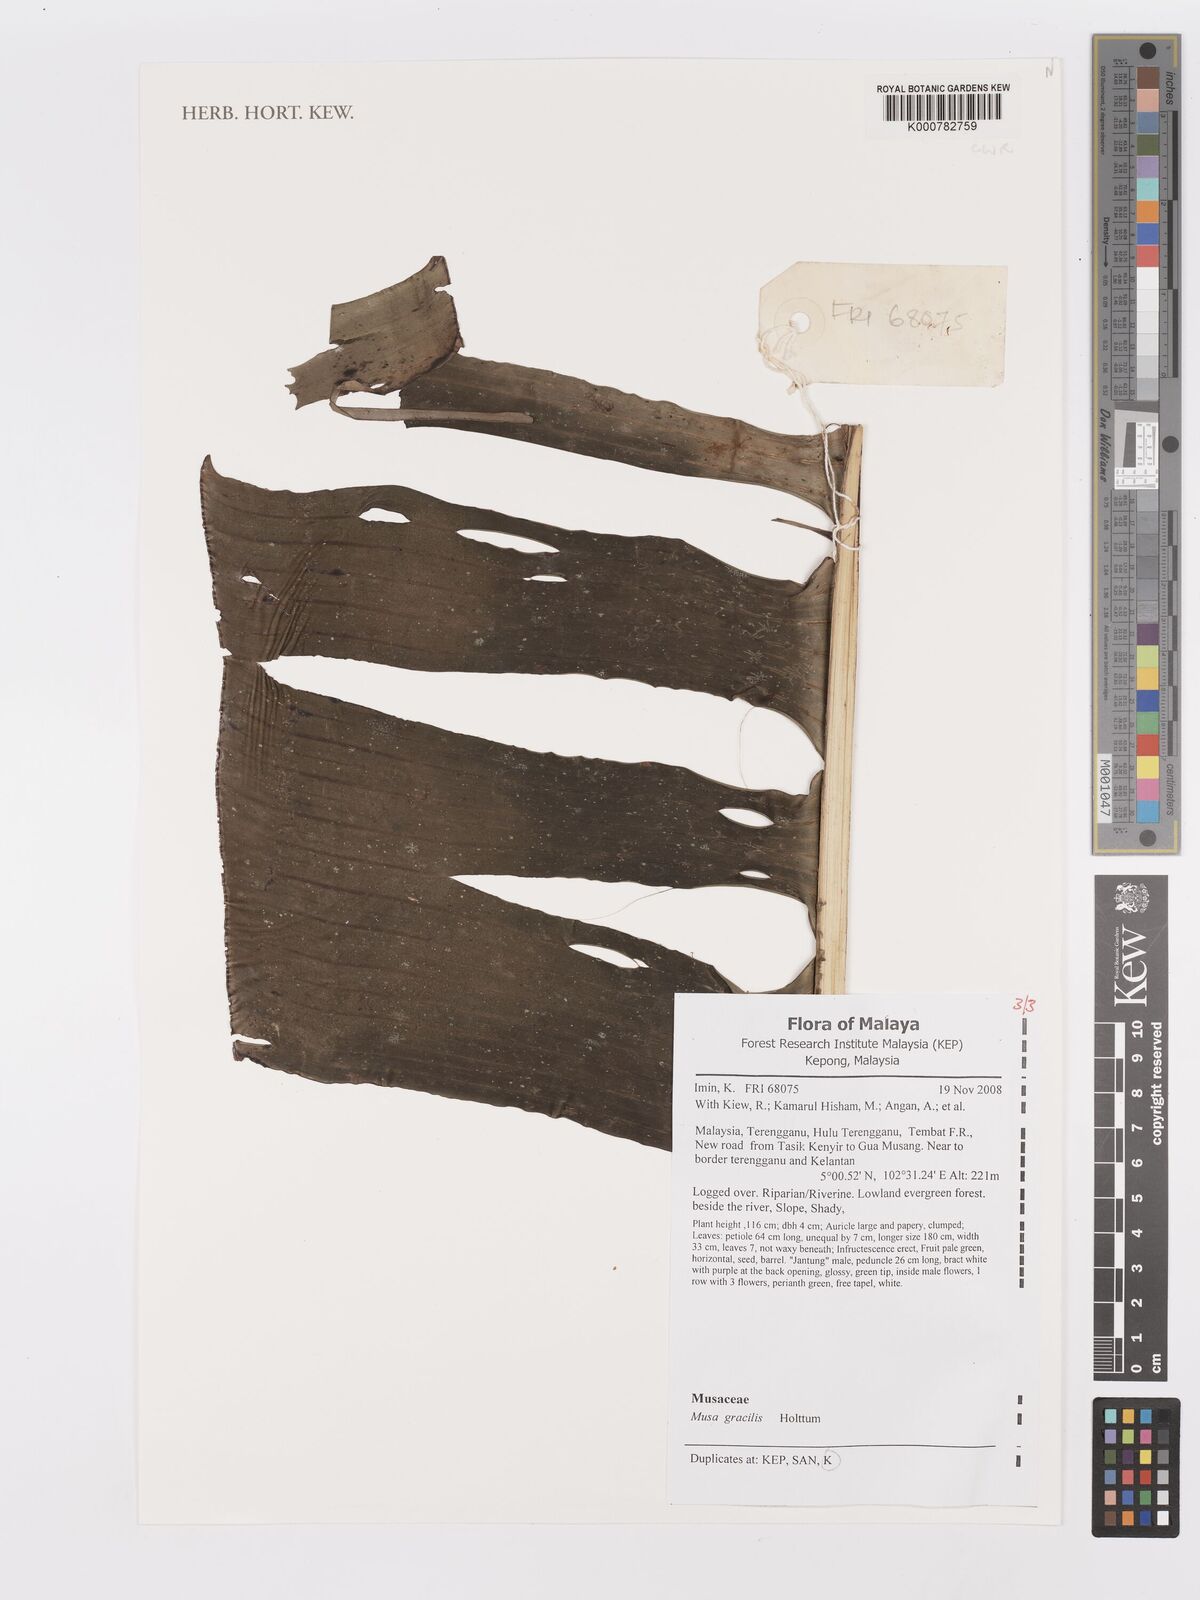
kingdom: Plantae
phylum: Tracheophyta
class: Liliopsida
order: Zingiberales
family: Musaceae
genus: Musa
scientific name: Musa gracilis
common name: Johore banana
